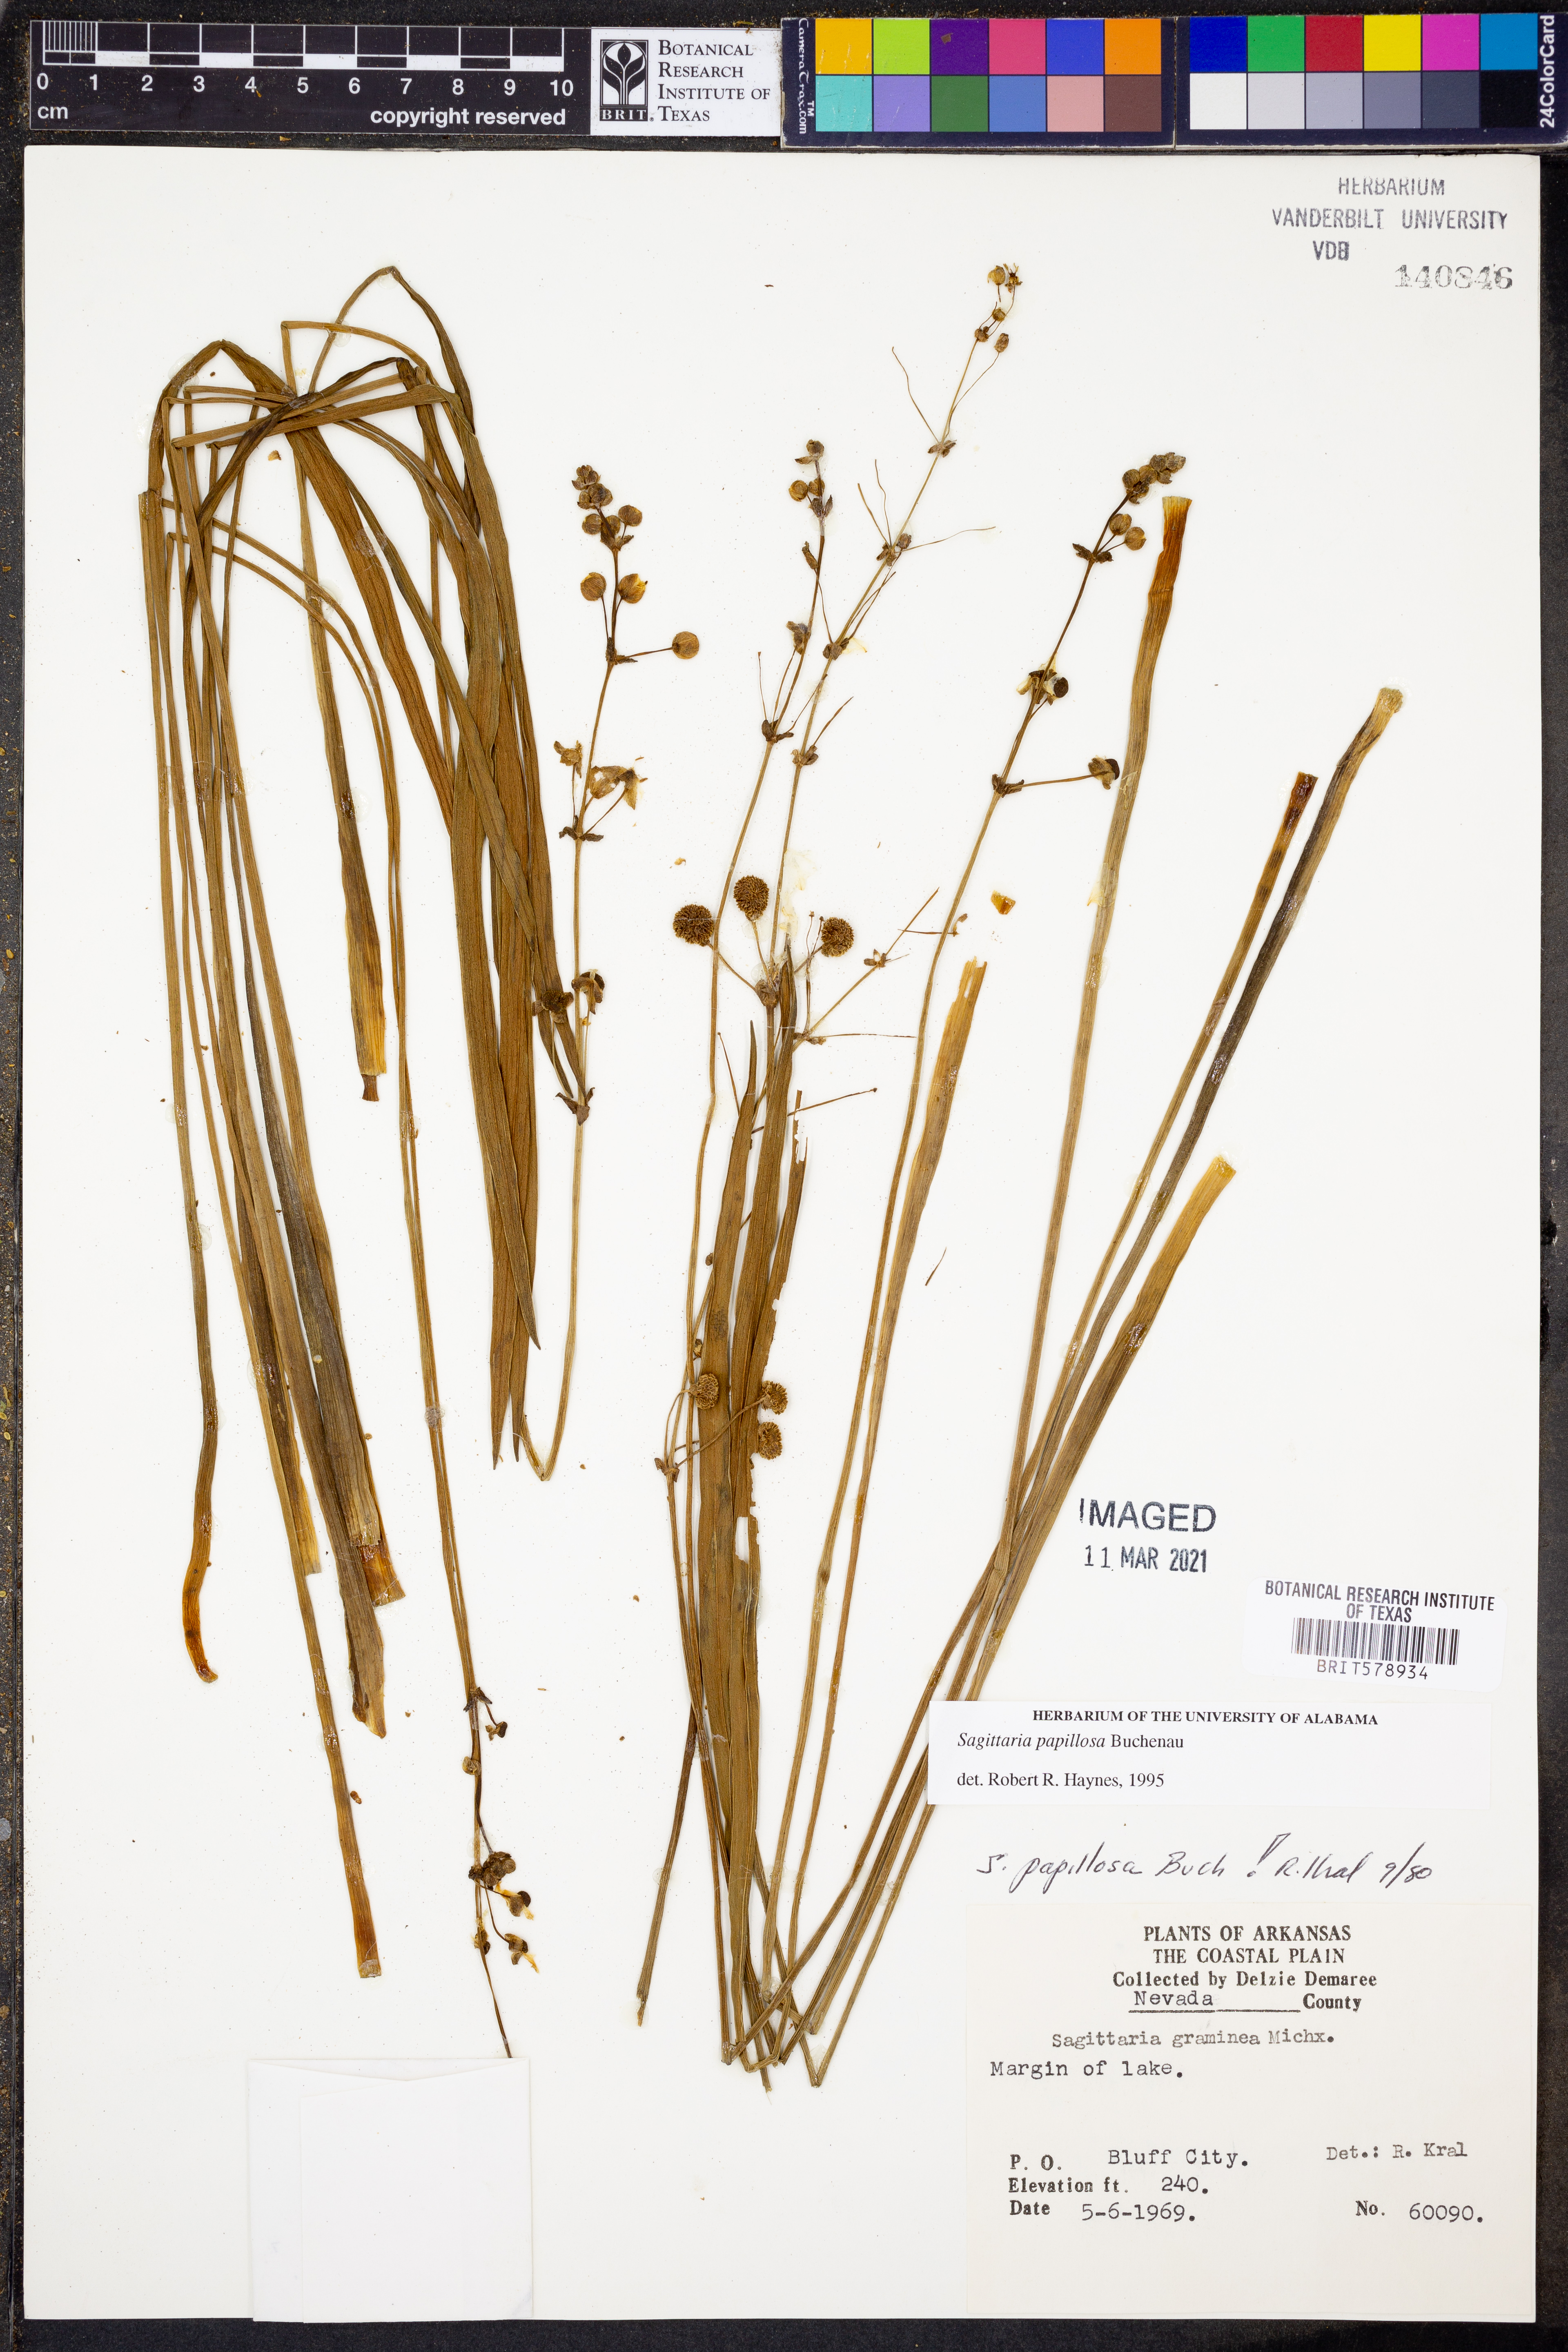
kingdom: Plantae
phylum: Tracheophyta
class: Liliopsida
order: Alismatales
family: Alismataceae
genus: Sagittaria
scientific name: Sagittaria papillosa
